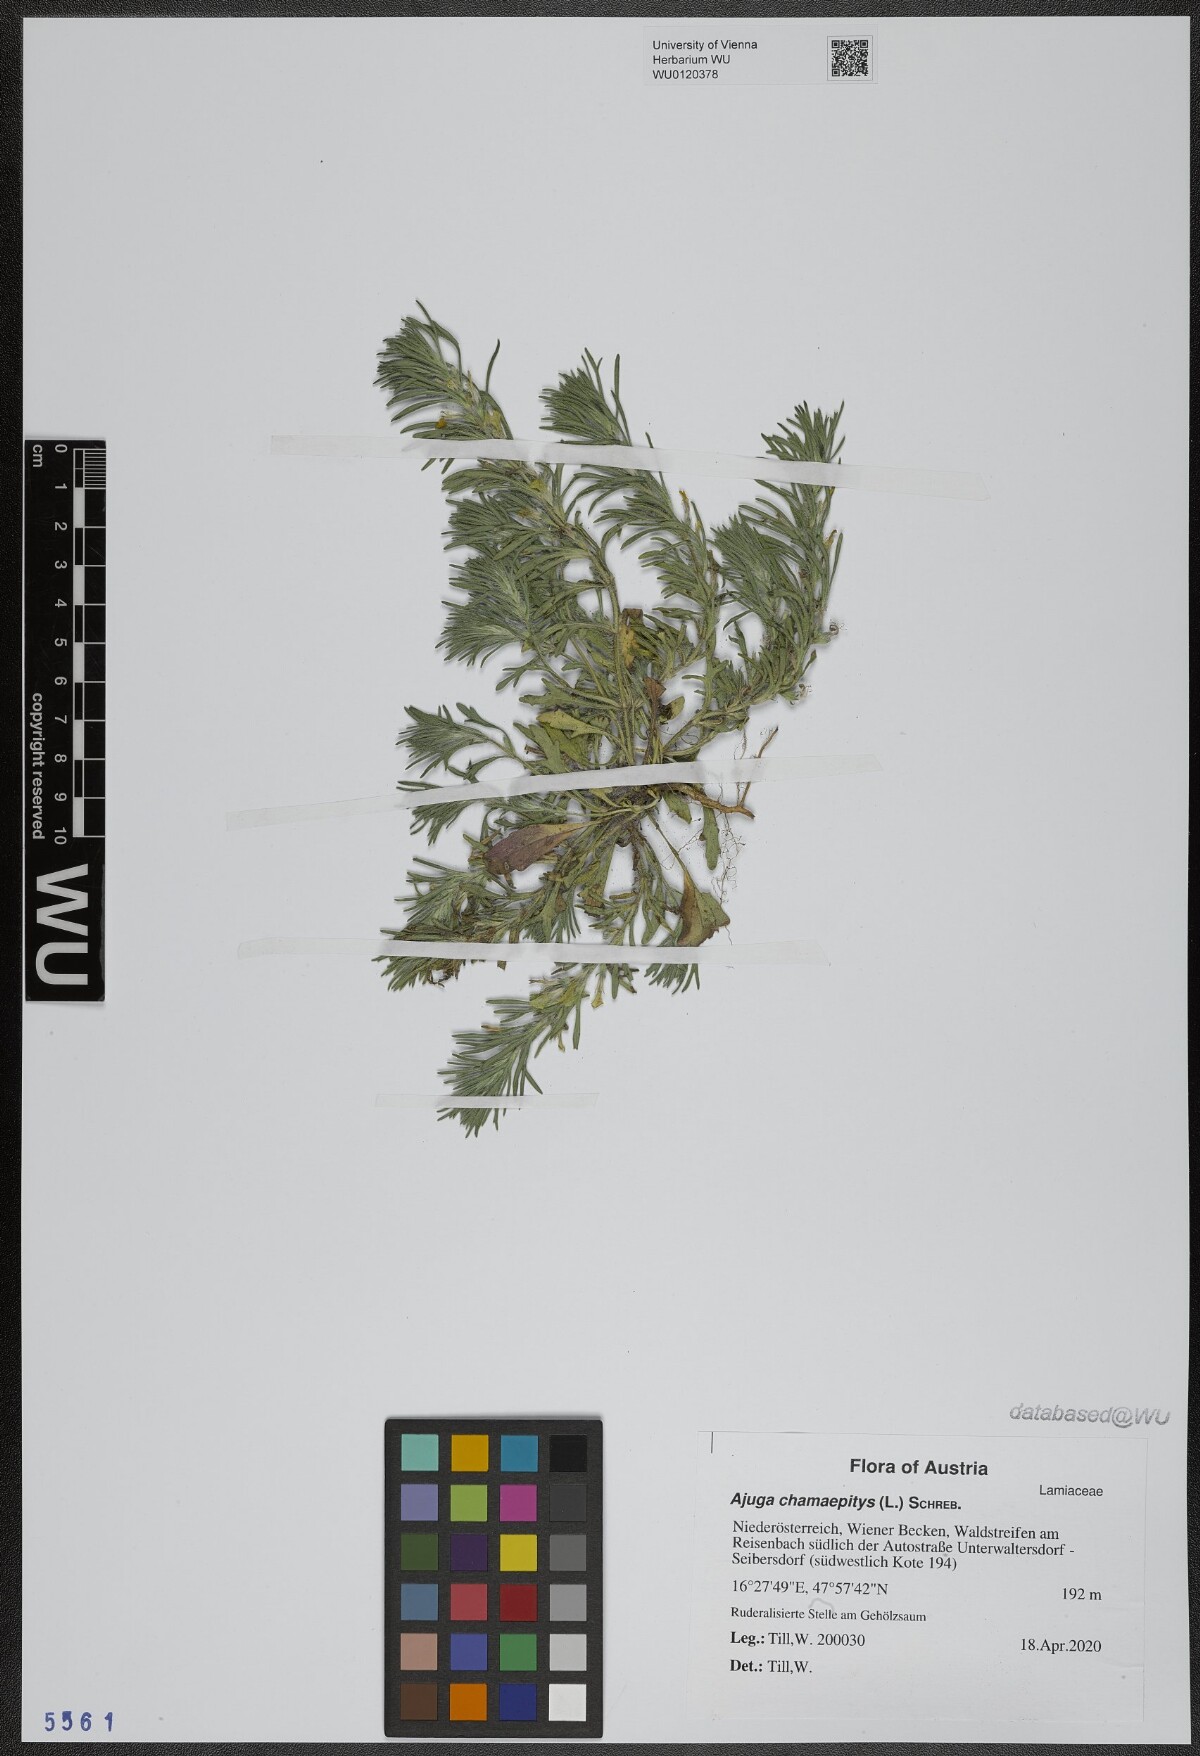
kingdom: Plantae
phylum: Tracheophyta
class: Magnoliopsida
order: Lamiales
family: Lamiaceae
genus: Ajuga
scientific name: Ajuga chamaepitys
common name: Ground-pine
